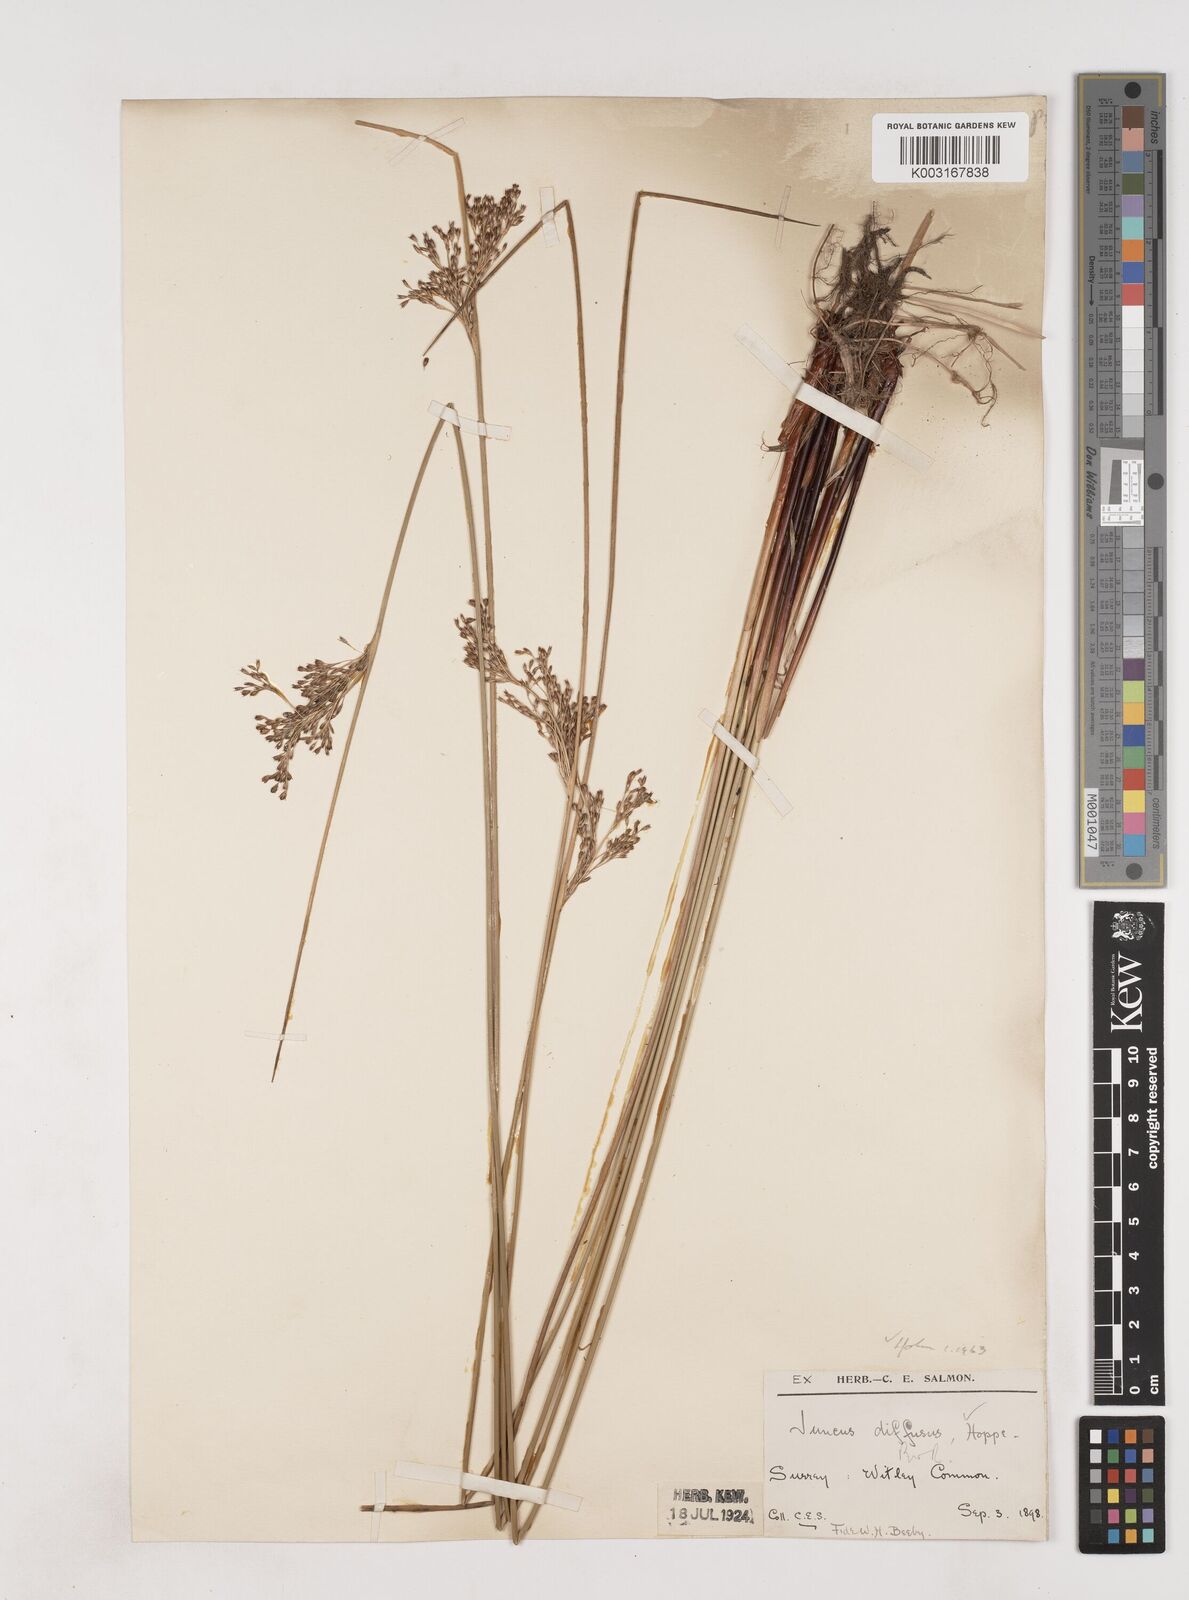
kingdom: Plantae
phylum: Tracheophyta
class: Liliopsida
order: Poales
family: Juncaceae
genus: Juncus
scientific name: Juncus effusus
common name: Soft rush
